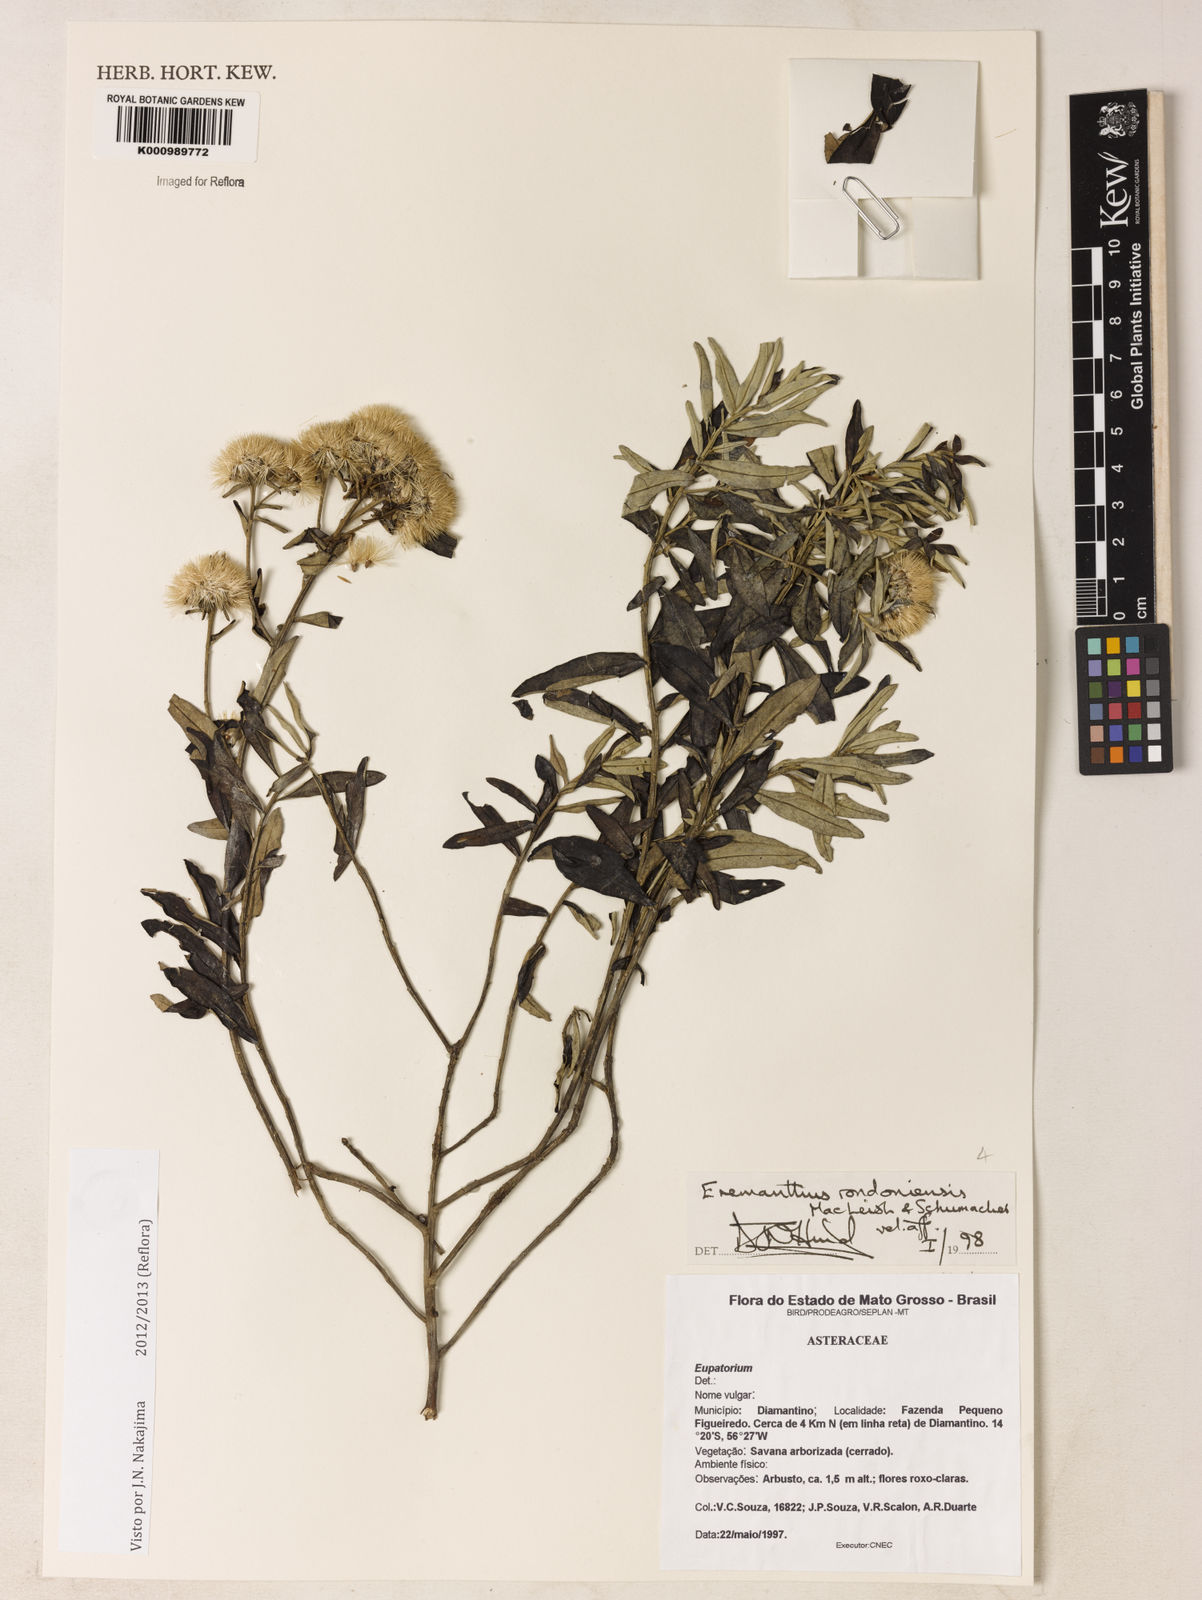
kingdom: Plantae
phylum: Tracheophyta
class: Magnoliopsida
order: Asterales
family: Asteraceae
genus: Eremanthus
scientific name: Eremanthus rondoniensis
